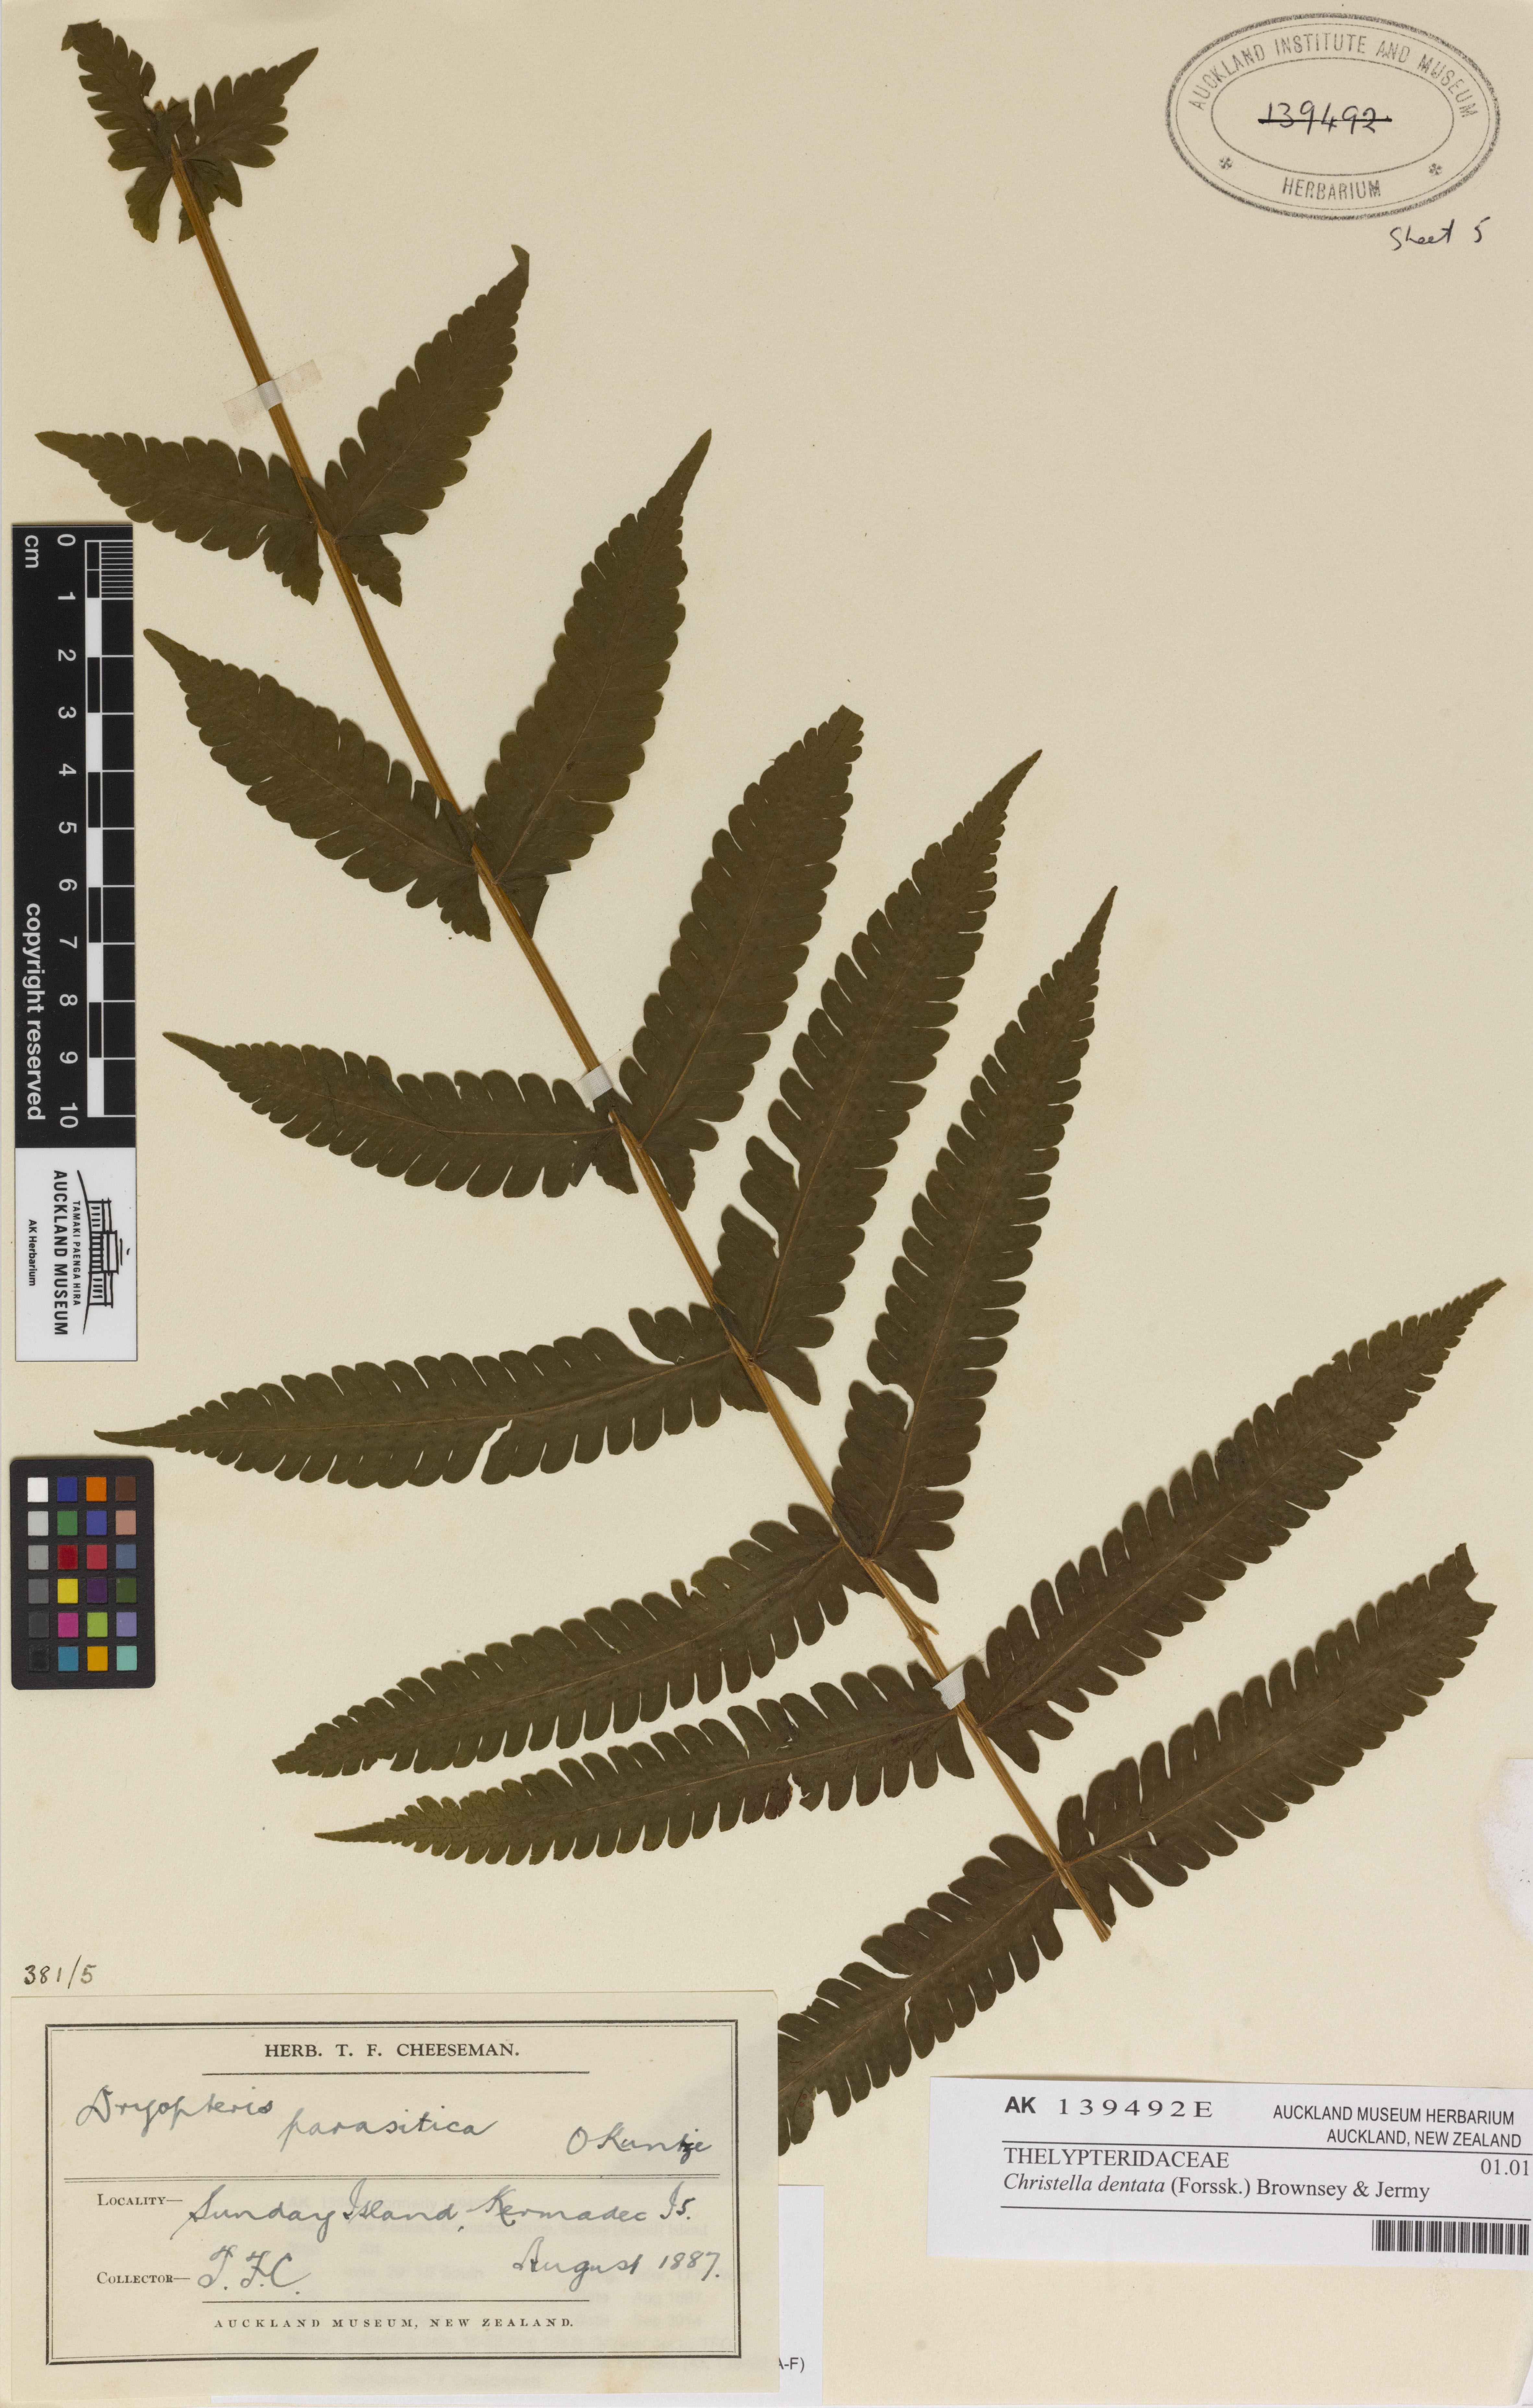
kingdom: Plantae
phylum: Tracheophyta
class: Polypodiopsida
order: Polypodiales
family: Thelypteridaceae
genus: Christella
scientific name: Christella dentata
